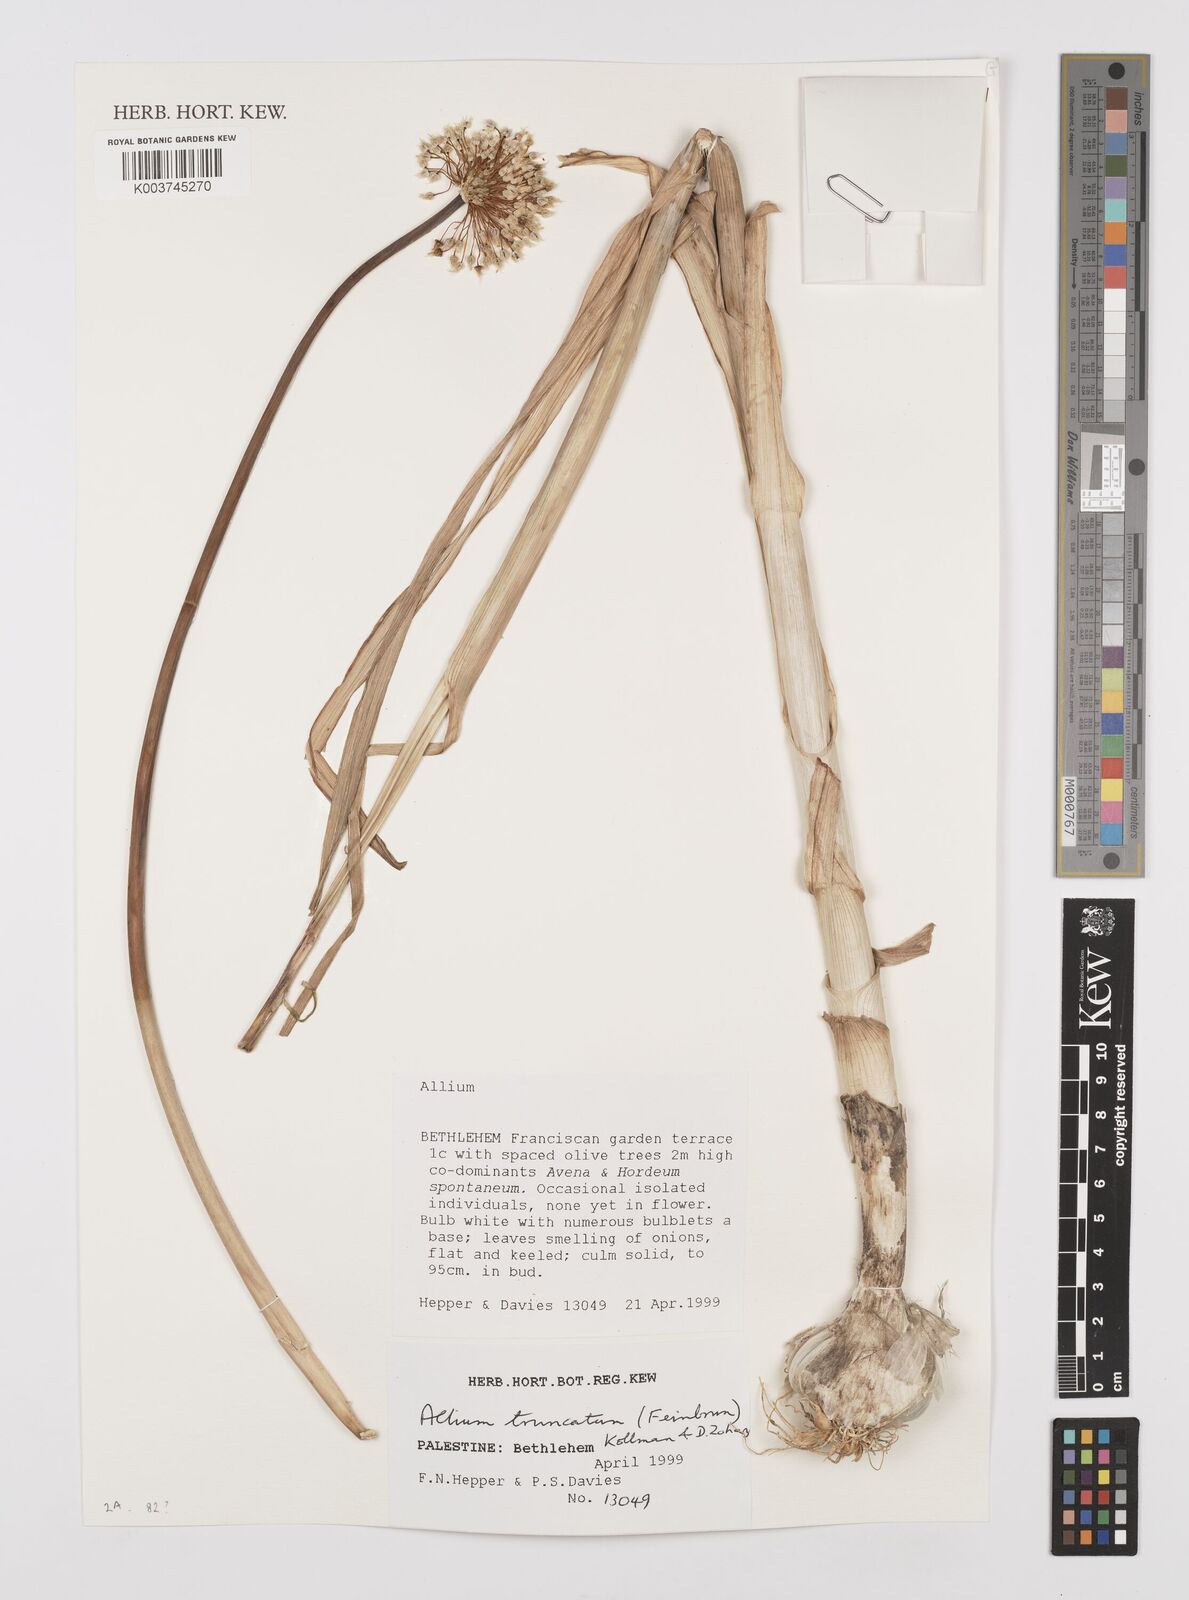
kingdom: Plantae
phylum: Tracheophyta
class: Liliopsida
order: Asparagales
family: Amaryllidaceae
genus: Allium
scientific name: Allium truncatum
